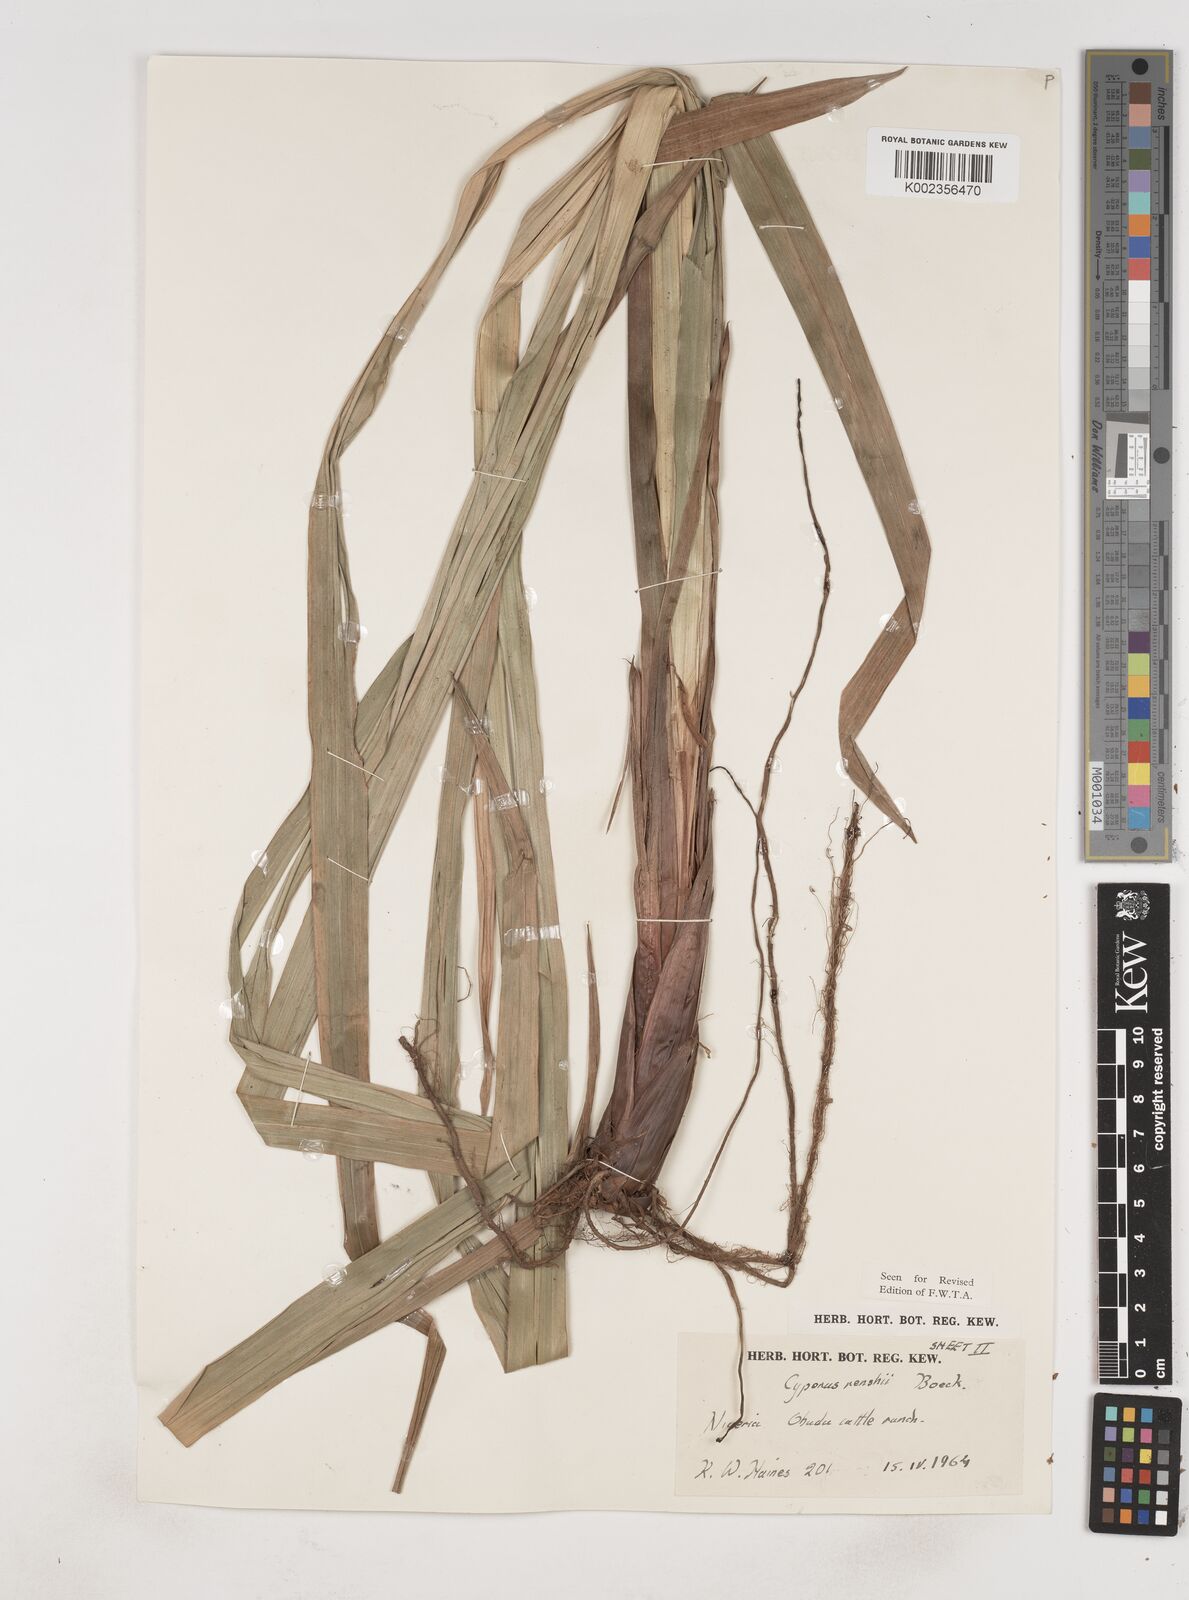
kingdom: Plantae
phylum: Tracheophyta
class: Liliopsida
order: Poales
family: Cyperaceae
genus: Cyperus
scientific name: Cyperus renschii
